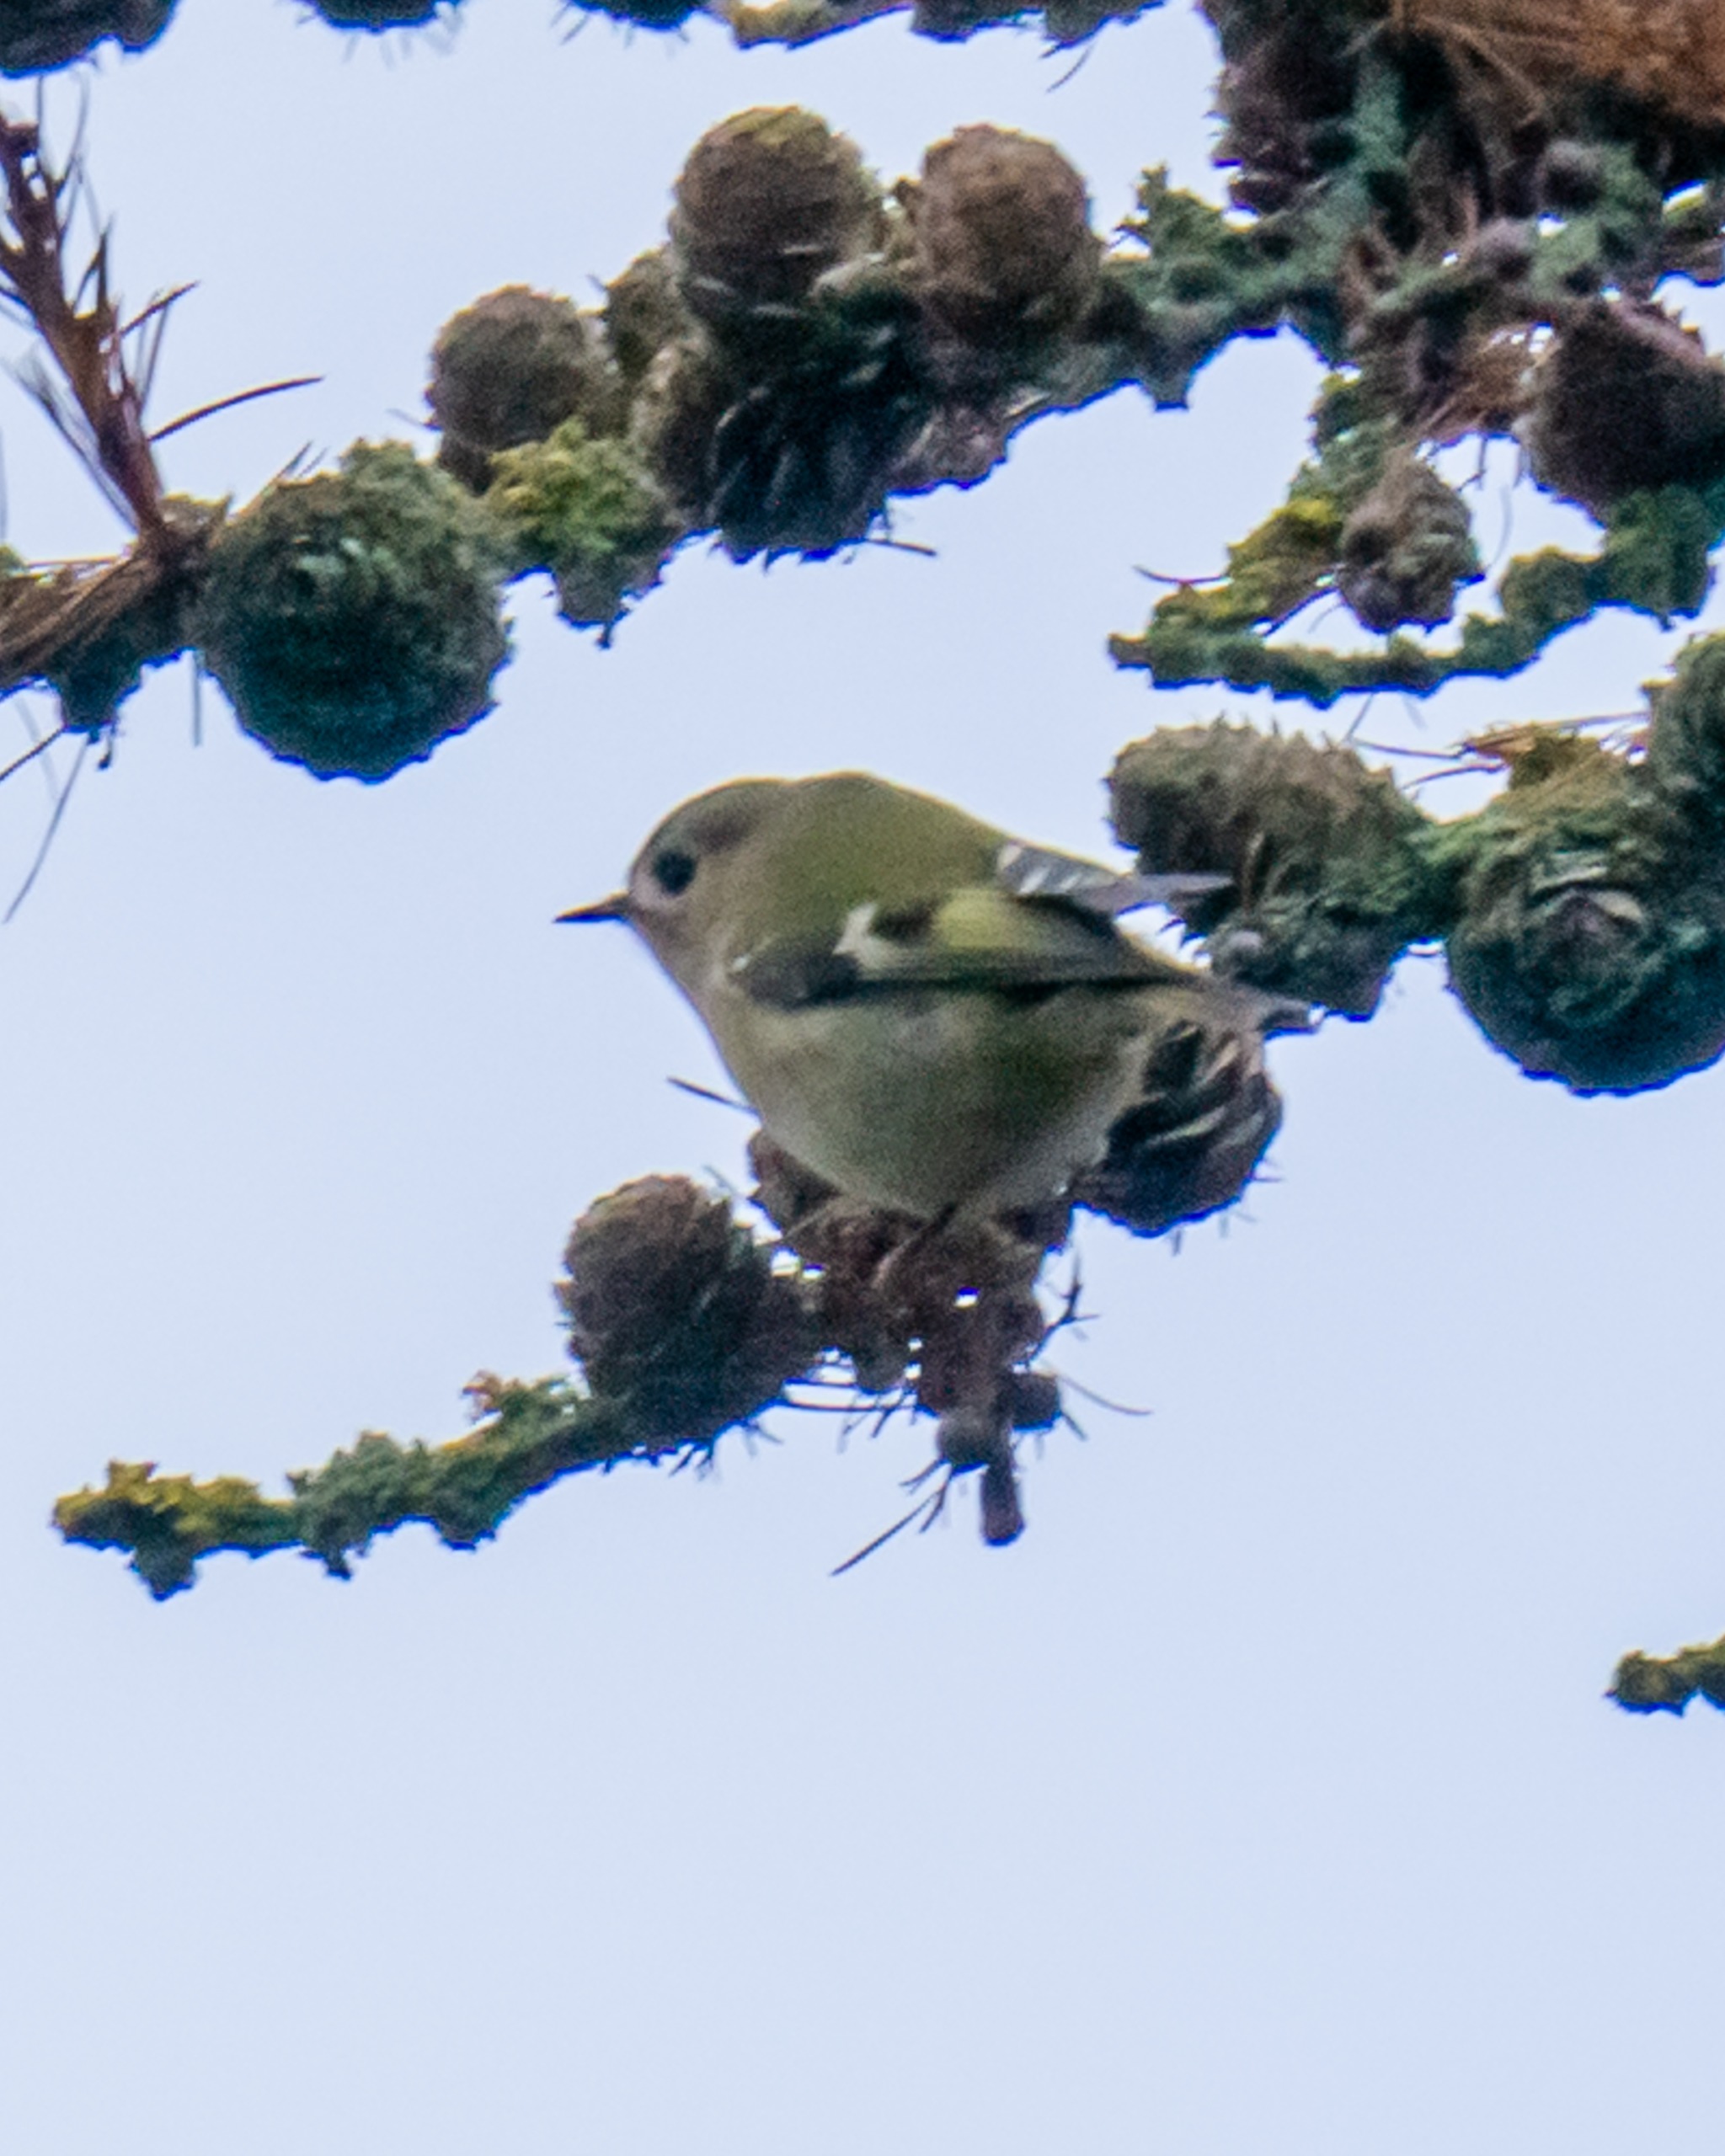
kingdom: Animalia
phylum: Chordata
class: Aves
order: Passeriformes
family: Regulidae
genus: Regulus
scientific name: Regulus regulus
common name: Fuglekonge
